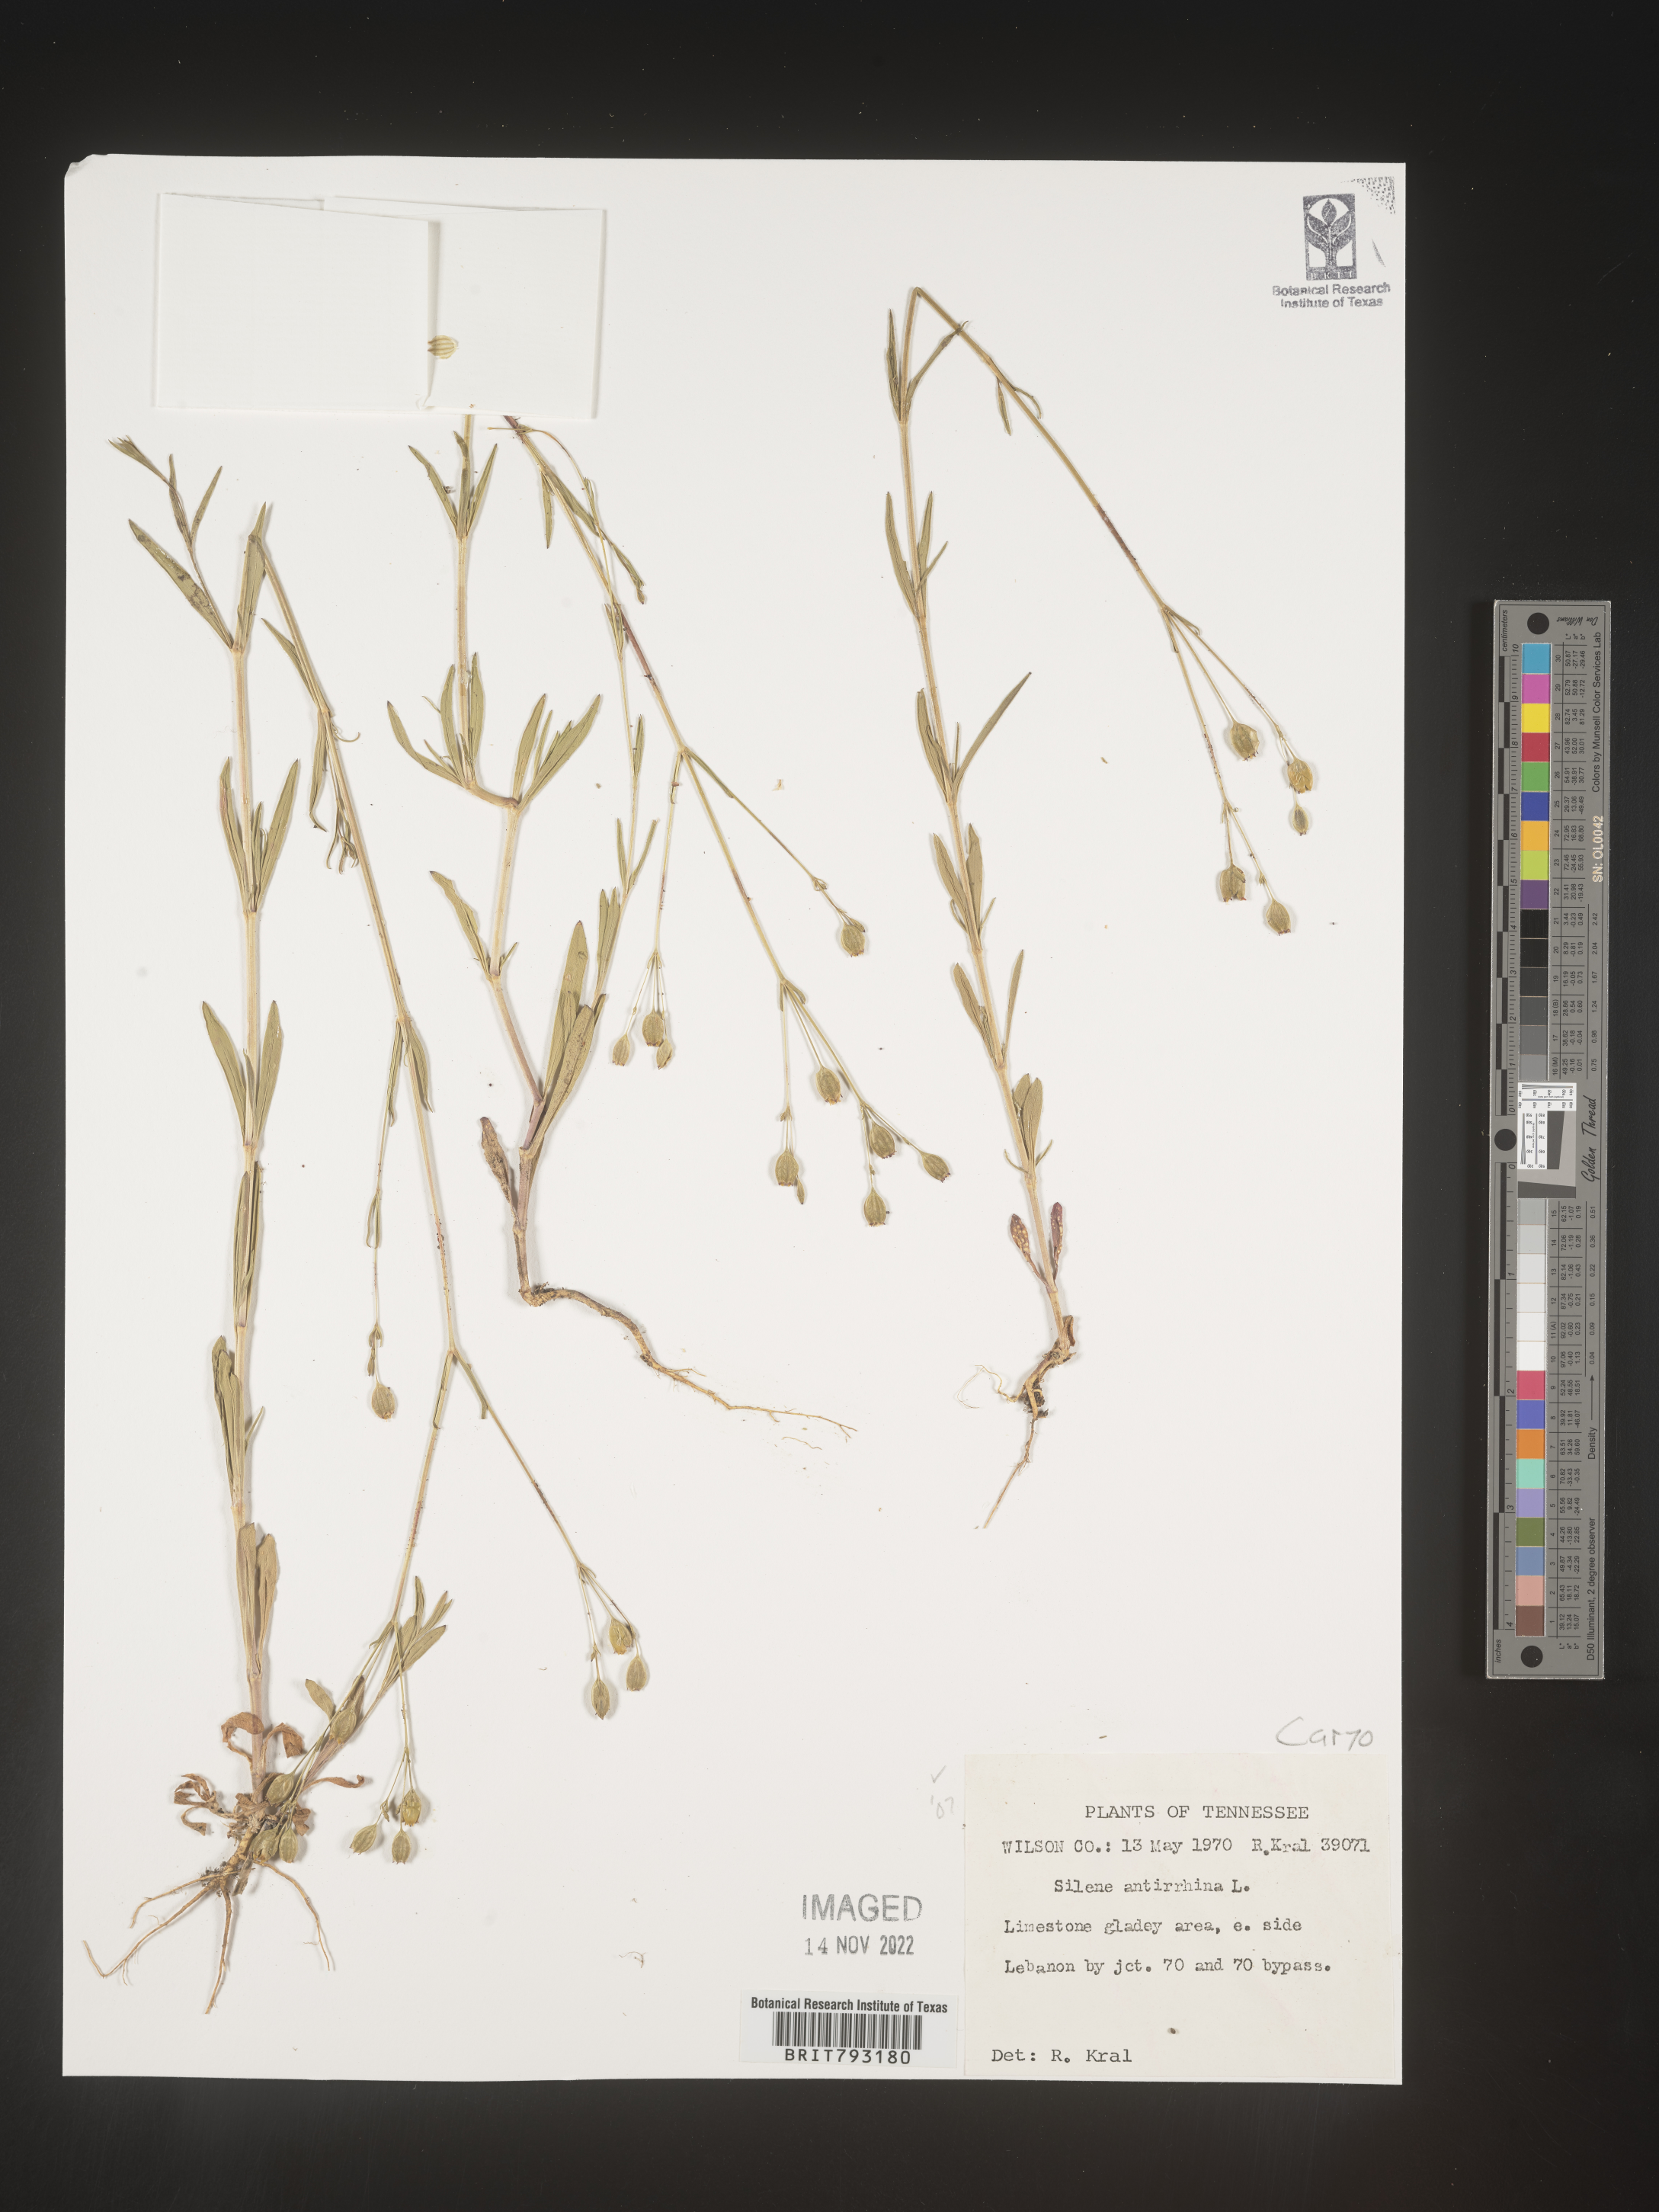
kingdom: Plantae
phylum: Tracheophyta
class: Magnoliopsida
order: Caryophyllales
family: Caryophyllaceae
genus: Silene
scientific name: Silene antirrhina
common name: Sleepy catchfly
